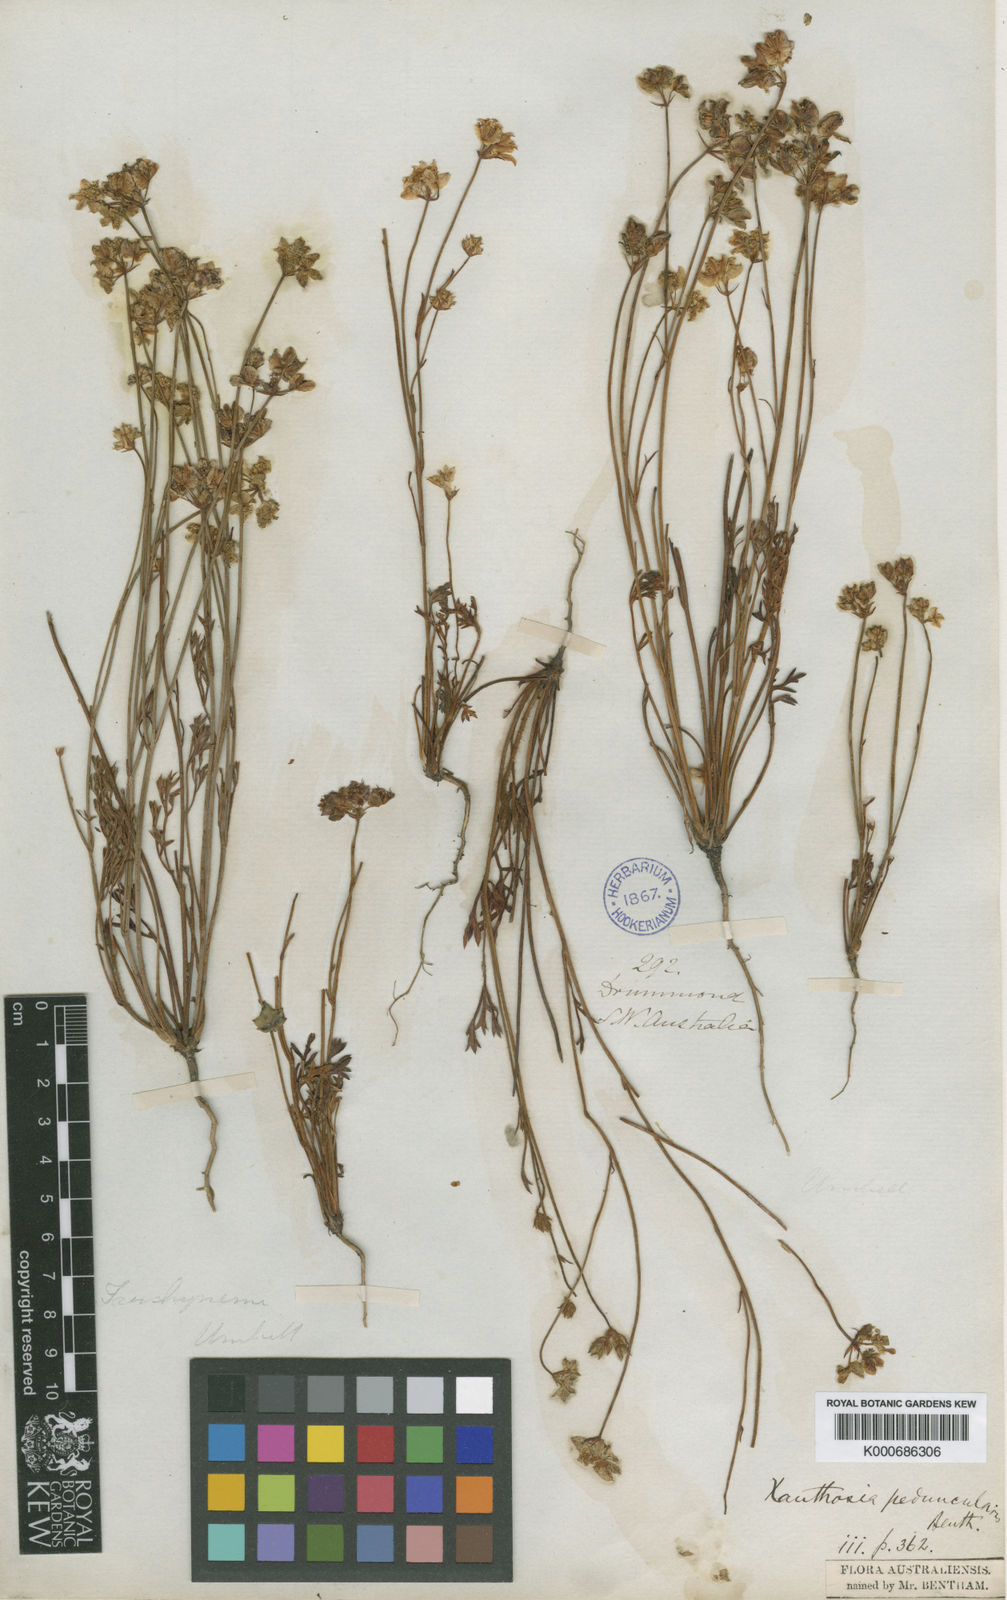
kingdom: Plantae
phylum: Tracheophyta
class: Magnoliopsida
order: Apiales
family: Apiaceae
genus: Xanthosia
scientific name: Xanthosia peduncularis
